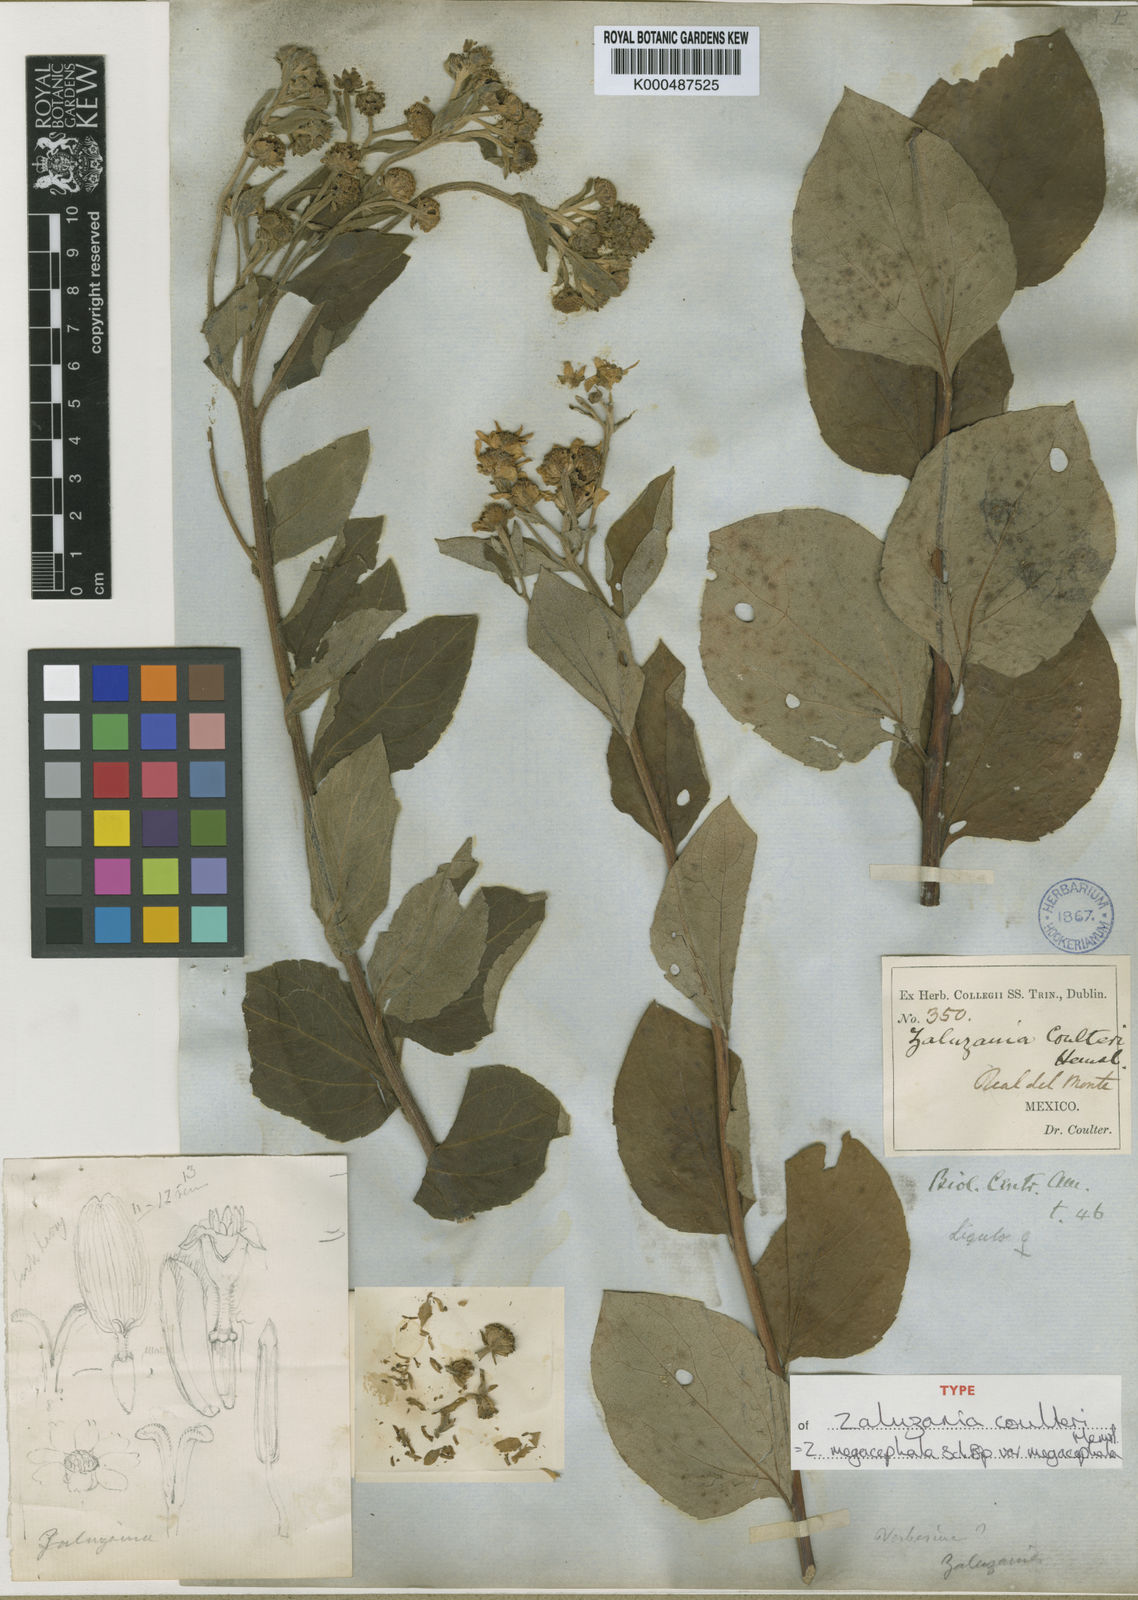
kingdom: Plantae
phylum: Tracheophyta
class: Magnoliopsida
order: Asterales
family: Asteraceae
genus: Zaluzania
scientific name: Zaluzania megacephala
